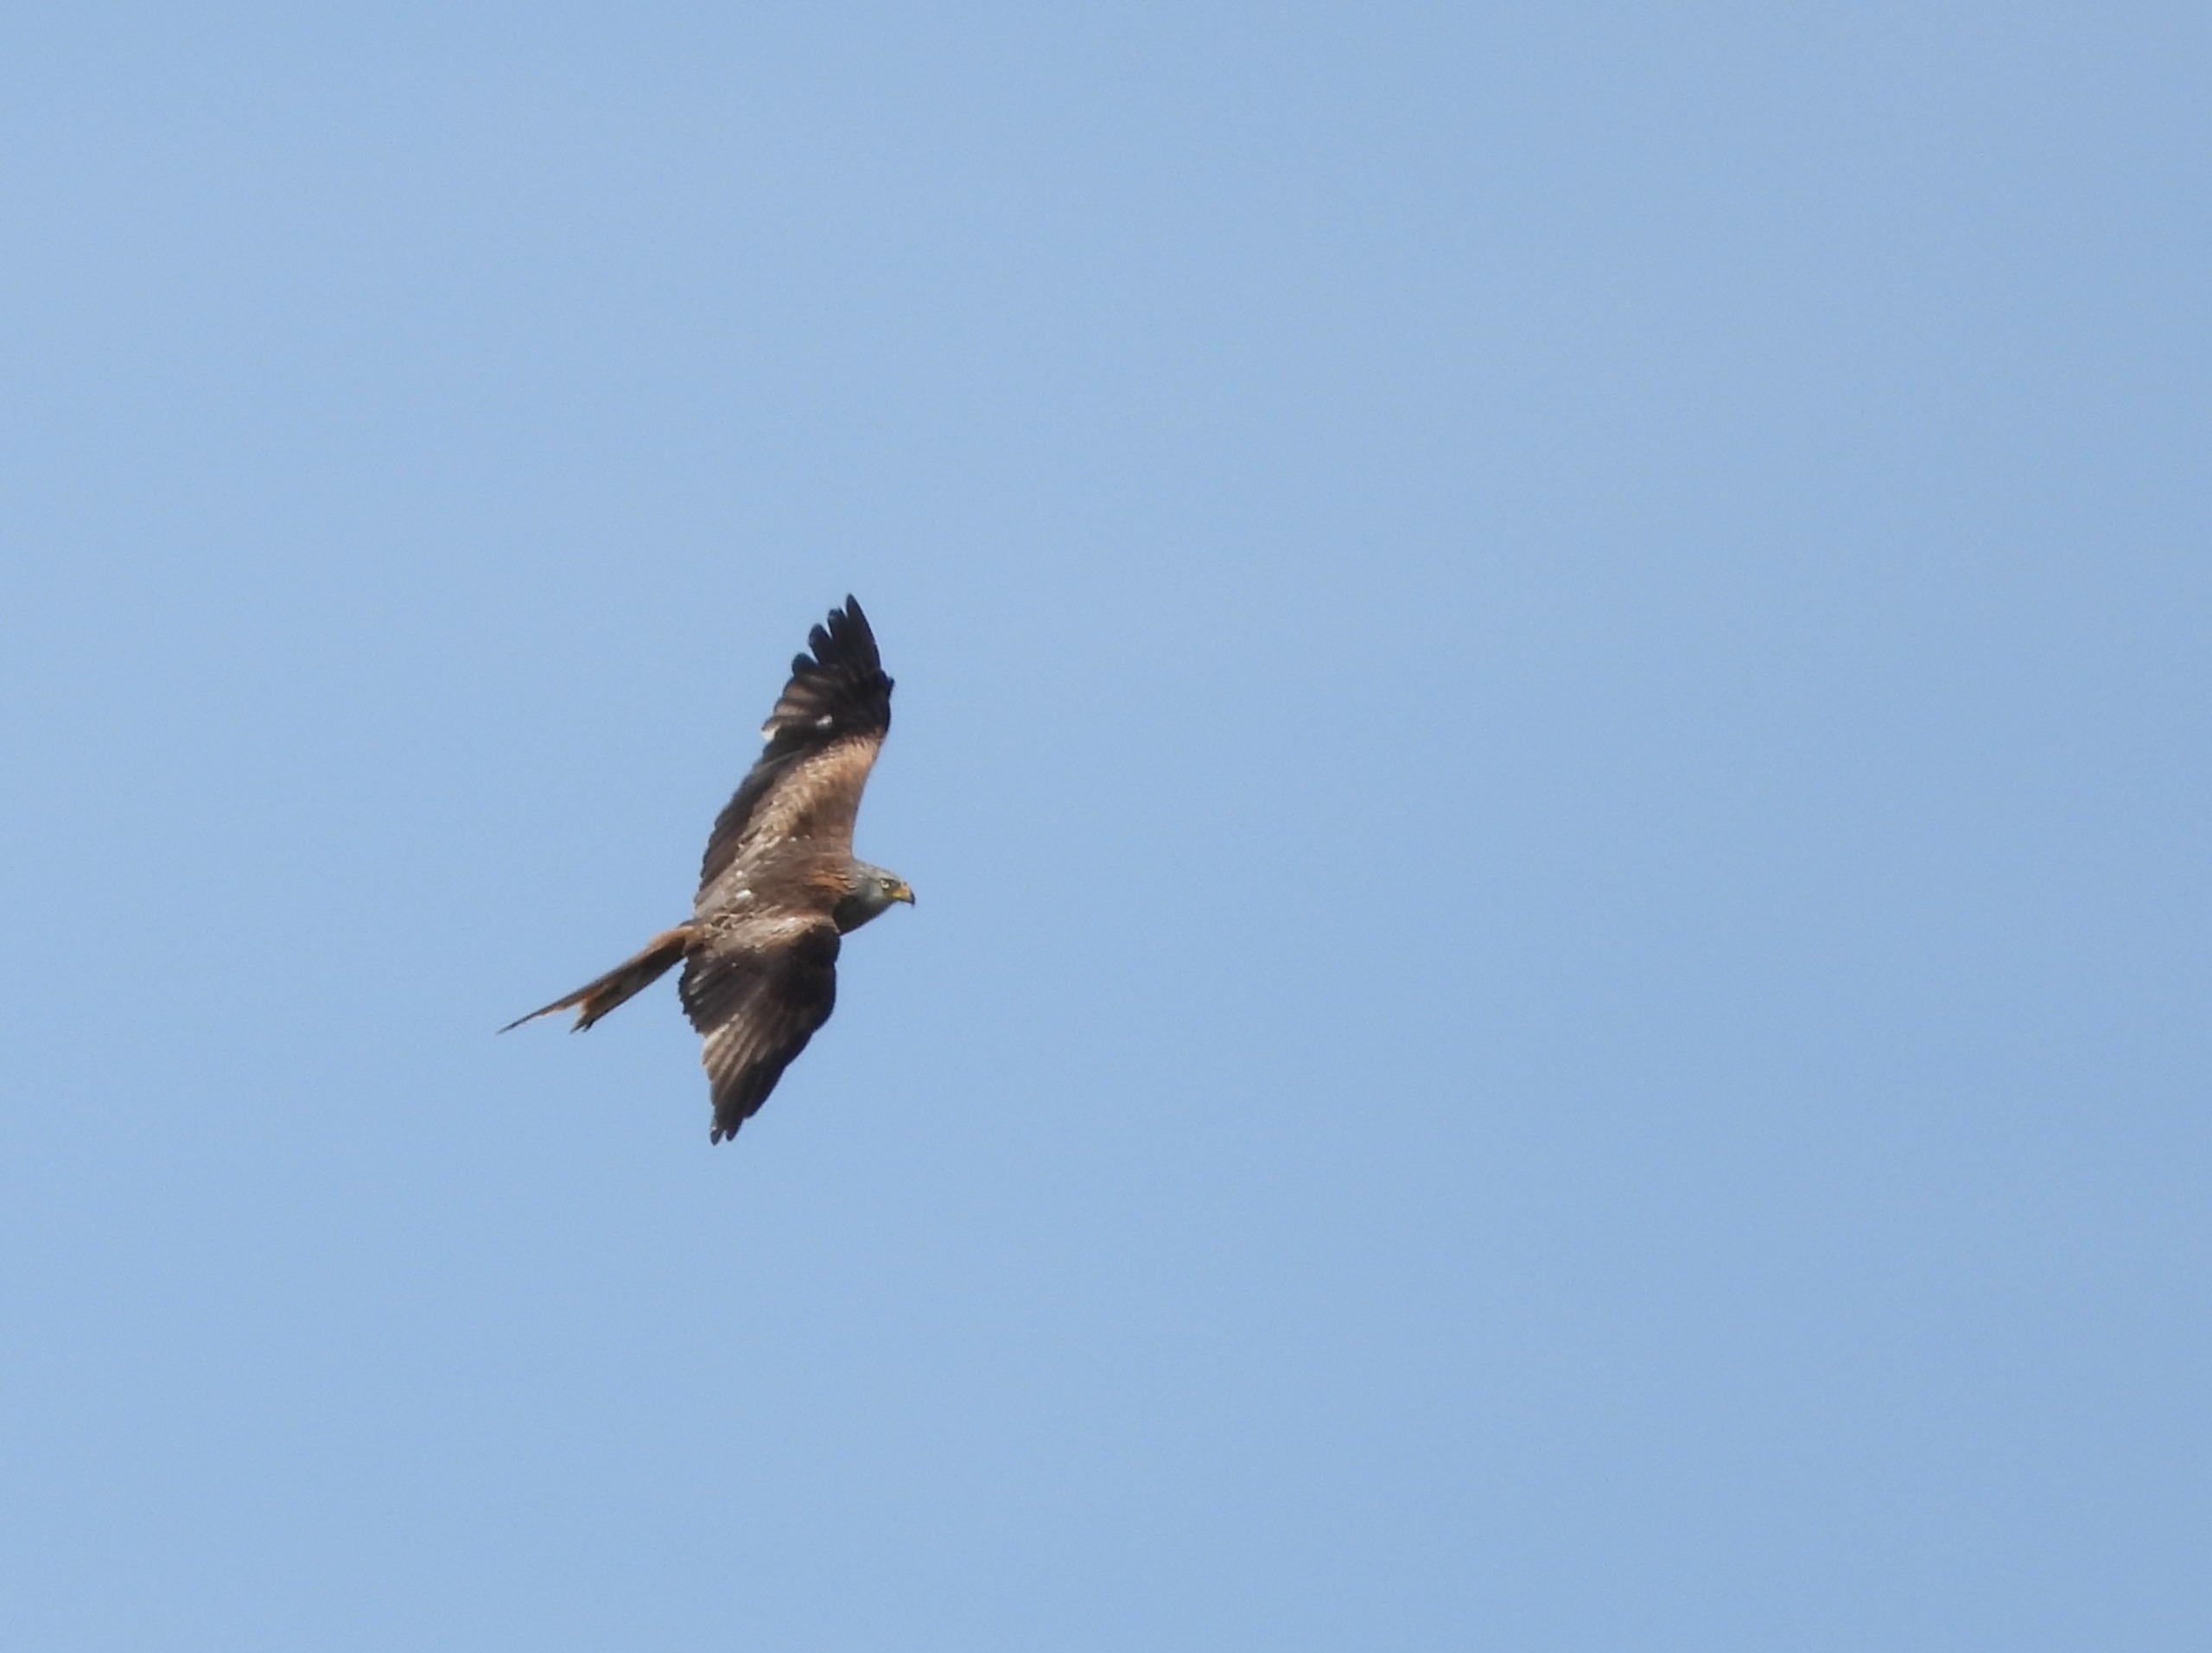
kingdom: Animalia
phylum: Chordata
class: Aves
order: Accipitriformes
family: Accipitridae
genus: Milvus
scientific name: Milvus milvus
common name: Rød glente
